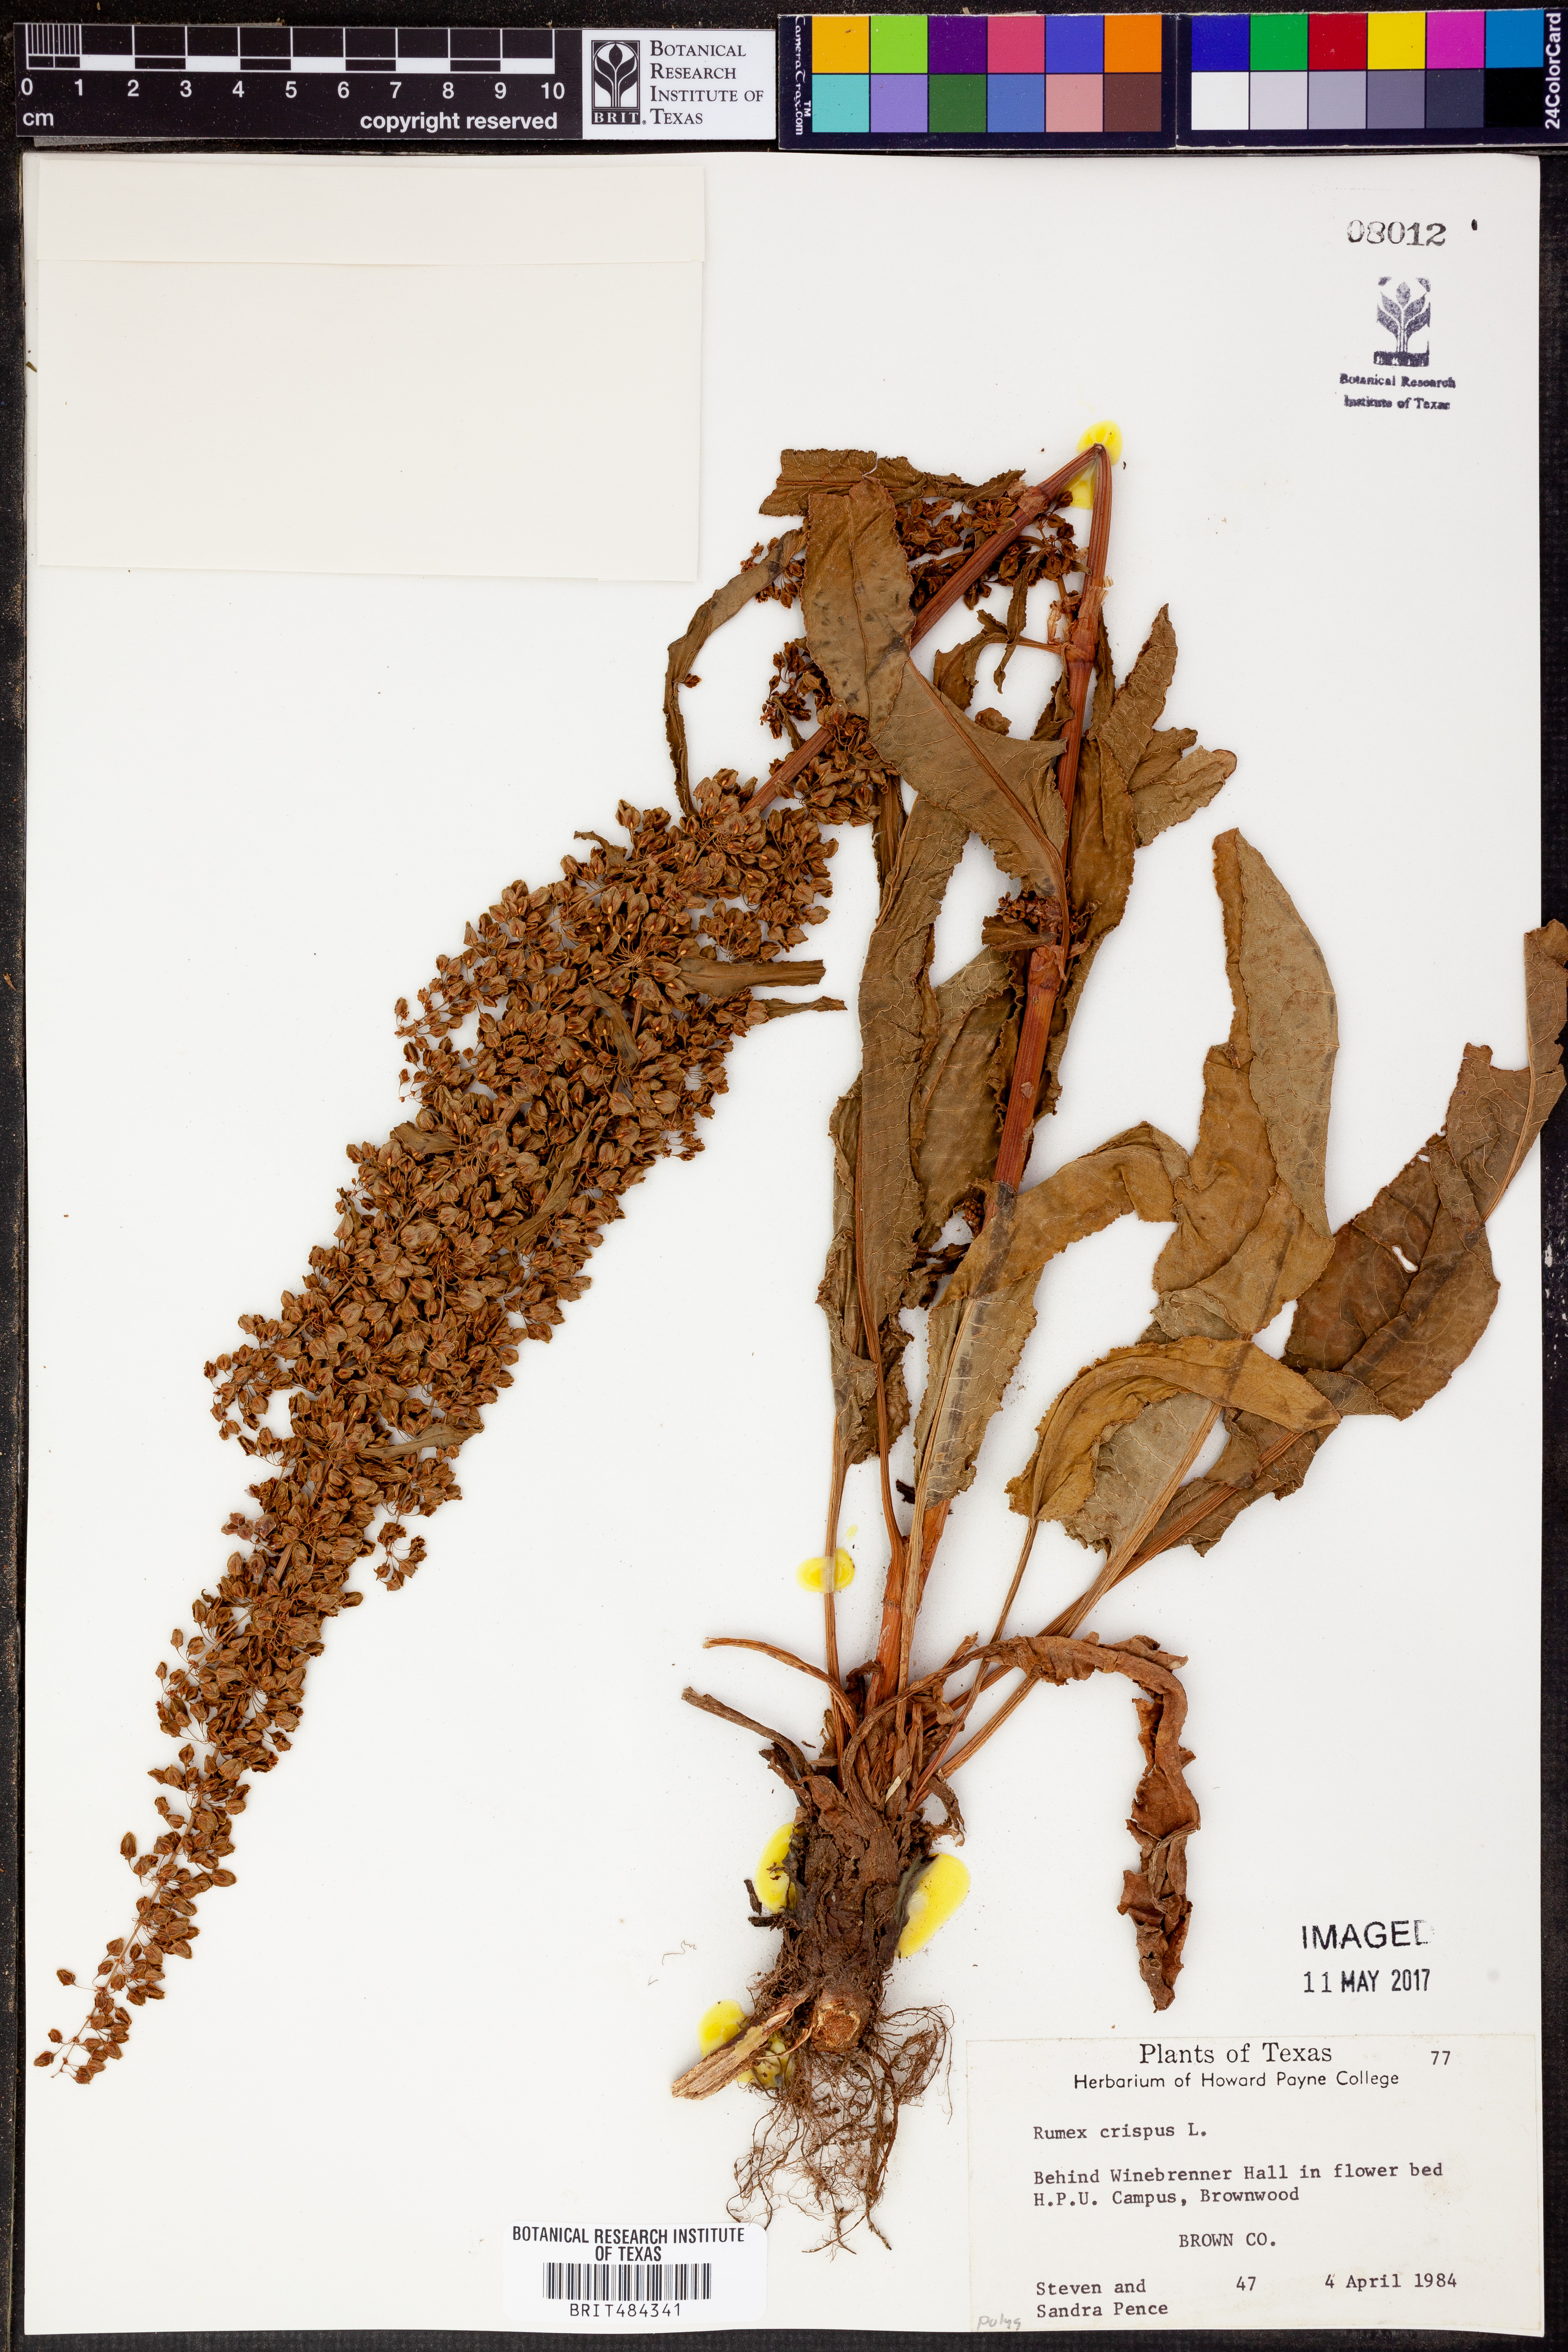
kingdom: Plantae
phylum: Tracheophyta
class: Magnoliopsida
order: Caryophyllales
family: Polygonaceae
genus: Rumex
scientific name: Rumex crispus
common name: Curled dock
